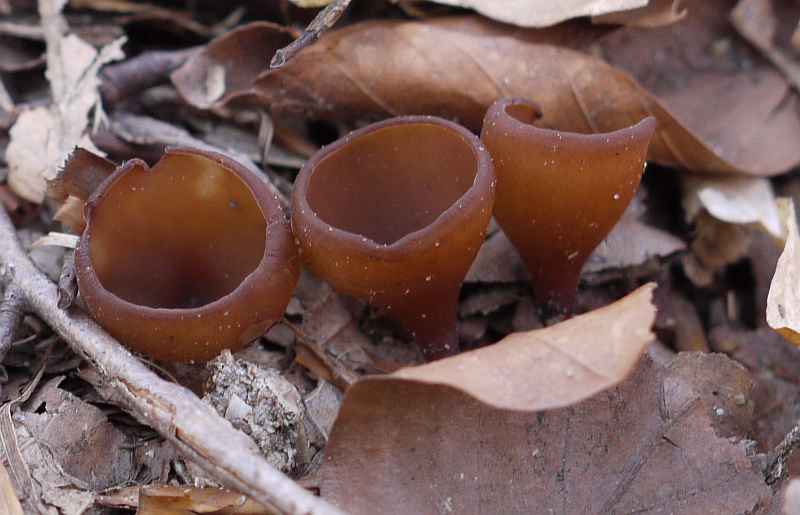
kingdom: Fungi
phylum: Ascomycota
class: Leotiomycetes
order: Helotiales
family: Sclerotiniaceae
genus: Dumontinia
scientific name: Dumontinia tuberosa
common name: anemone-knoldskive
